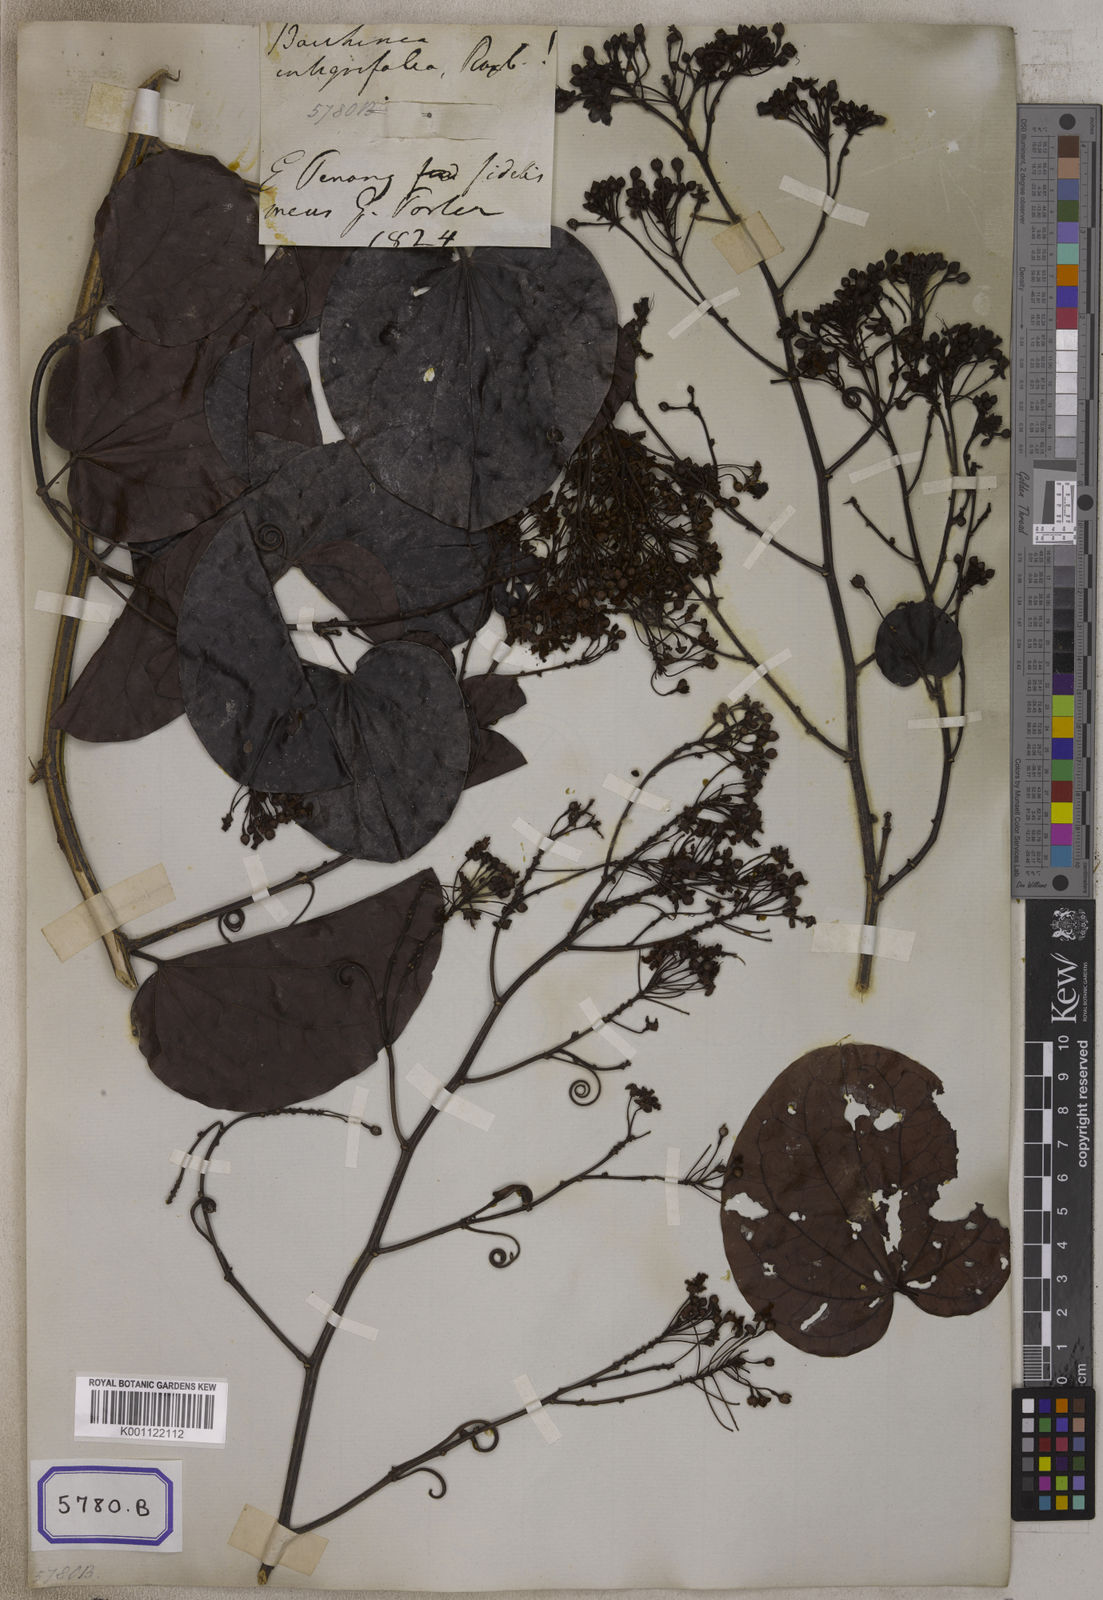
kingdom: Plantae
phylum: Tracheophyta
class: Magnoliopsida
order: Fabales
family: Fabaceae
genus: Phanera
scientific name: Phanera integrifolia
